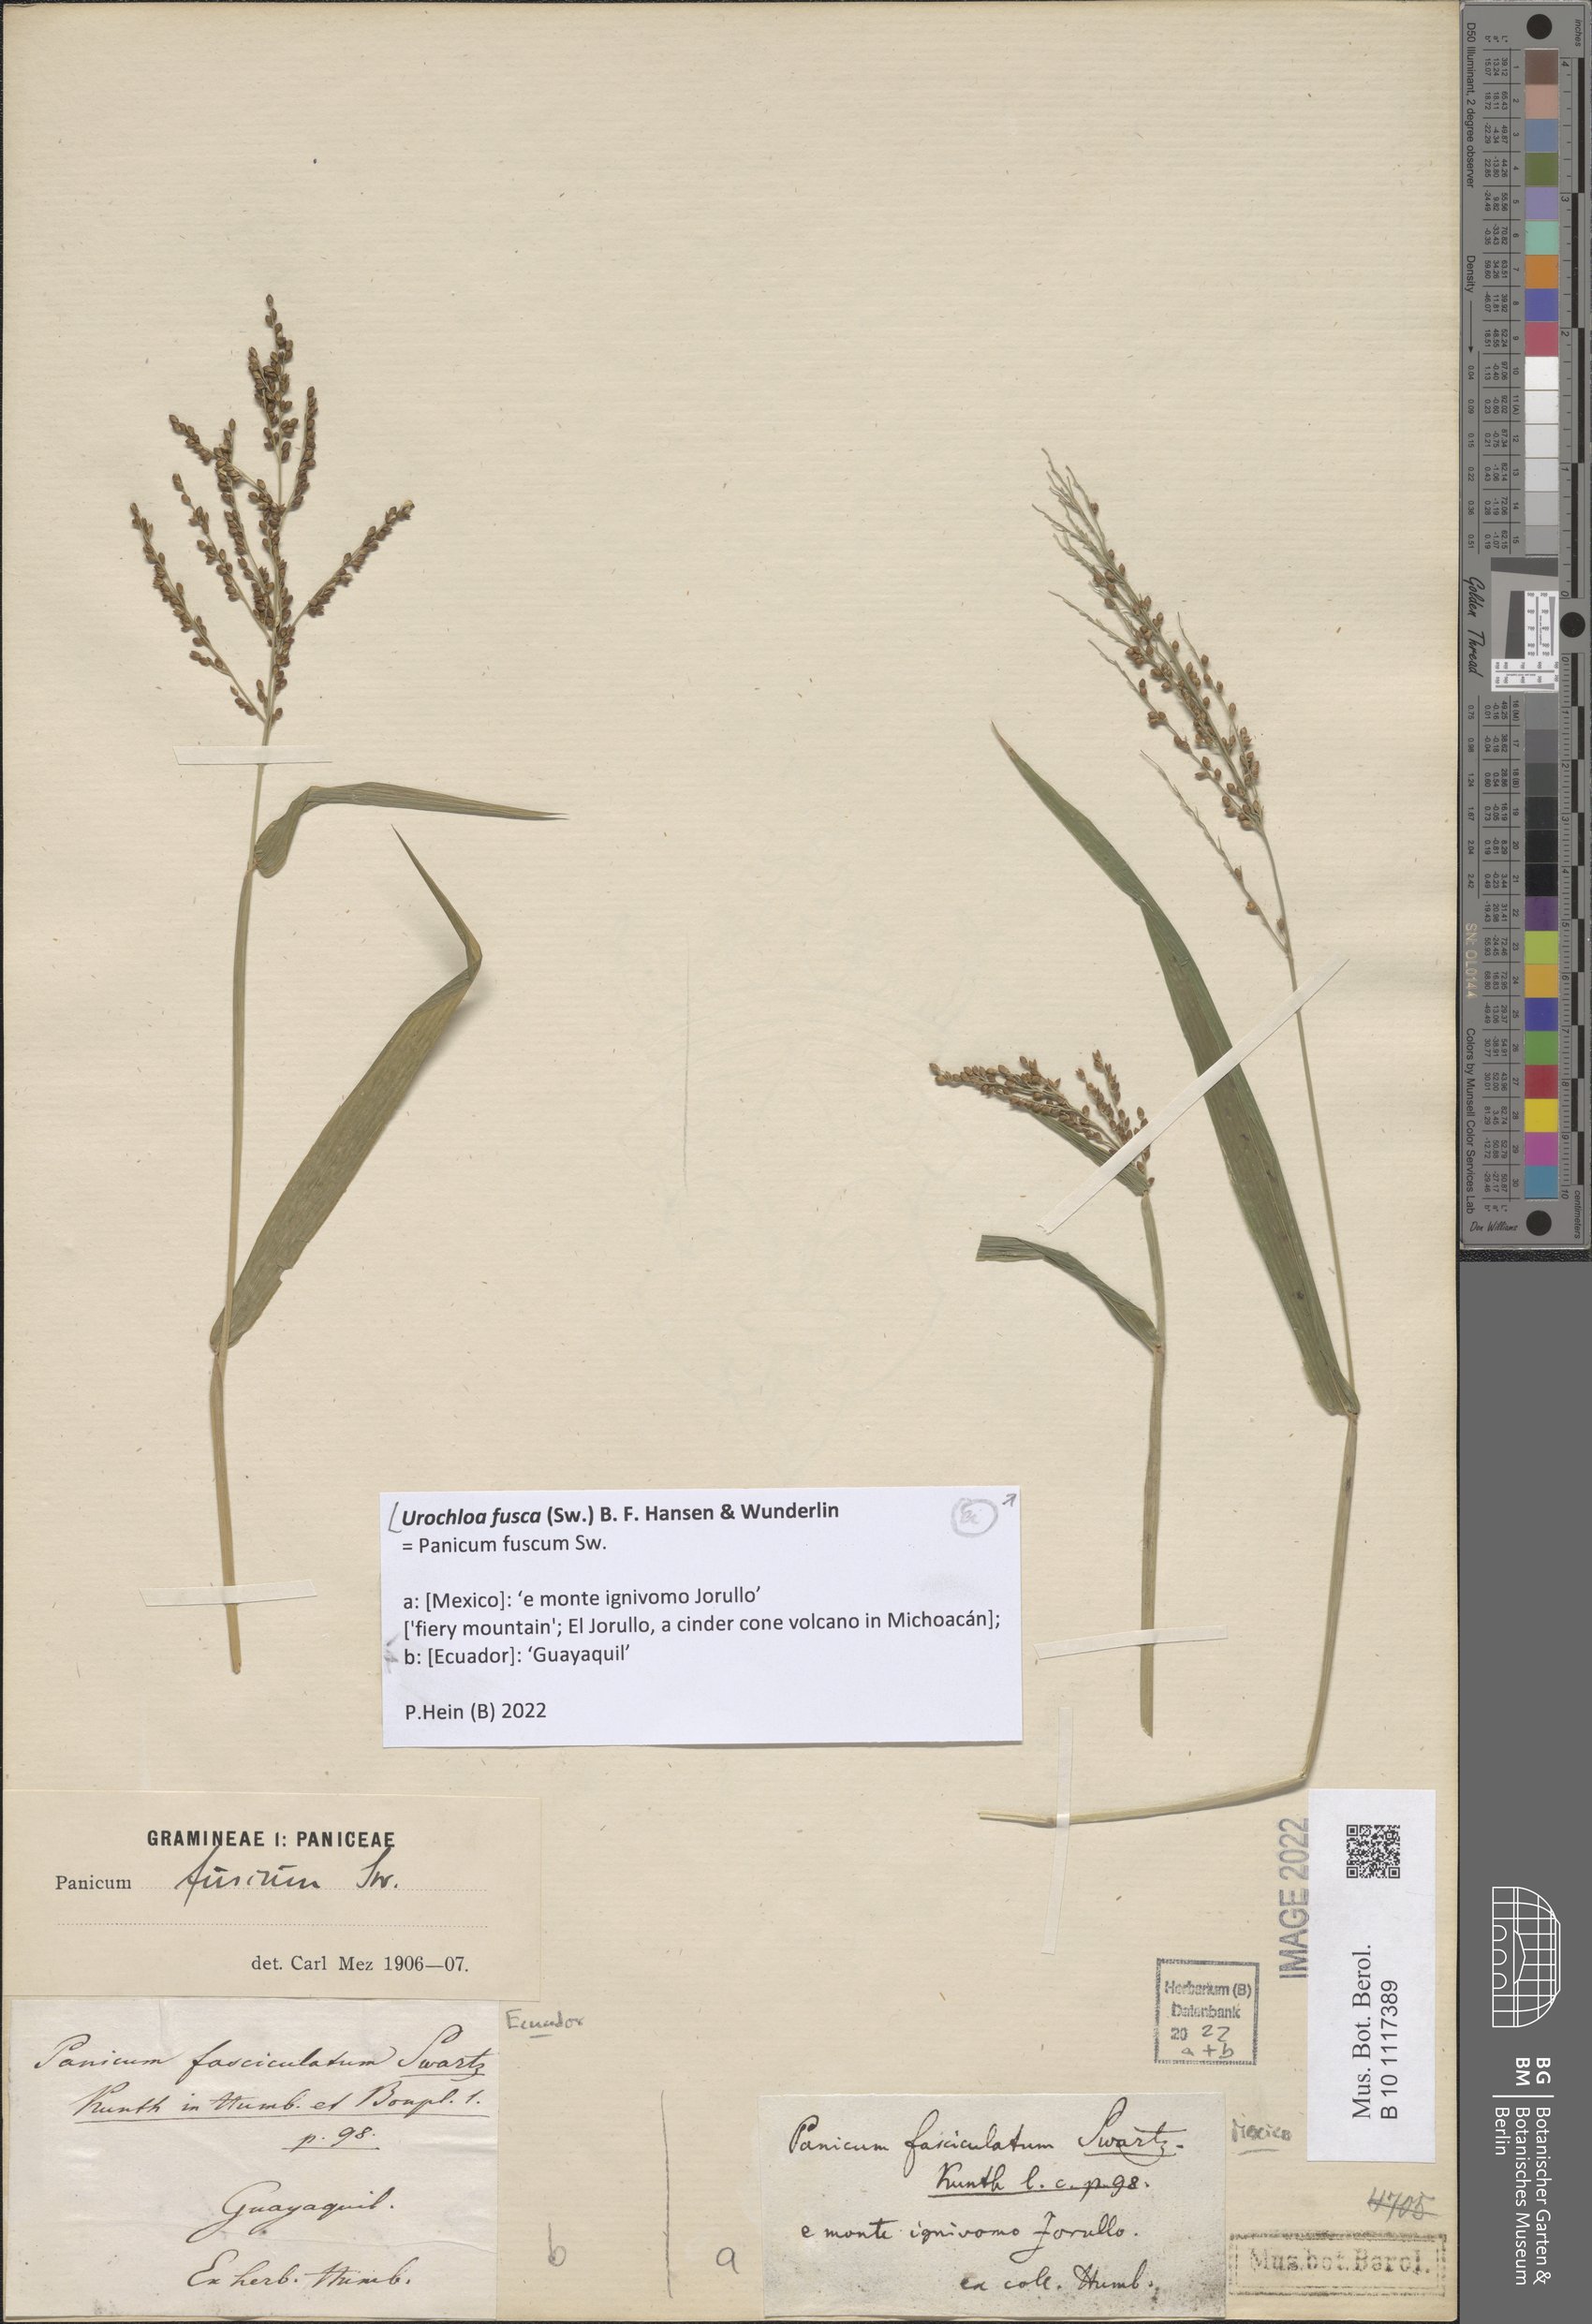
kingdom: Plantae
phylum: Tracheophyta
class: Liliopsida
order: Poales
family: Poaceae
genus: Urochloa
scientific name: Urochloa fusca
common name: Browntop signal grass
